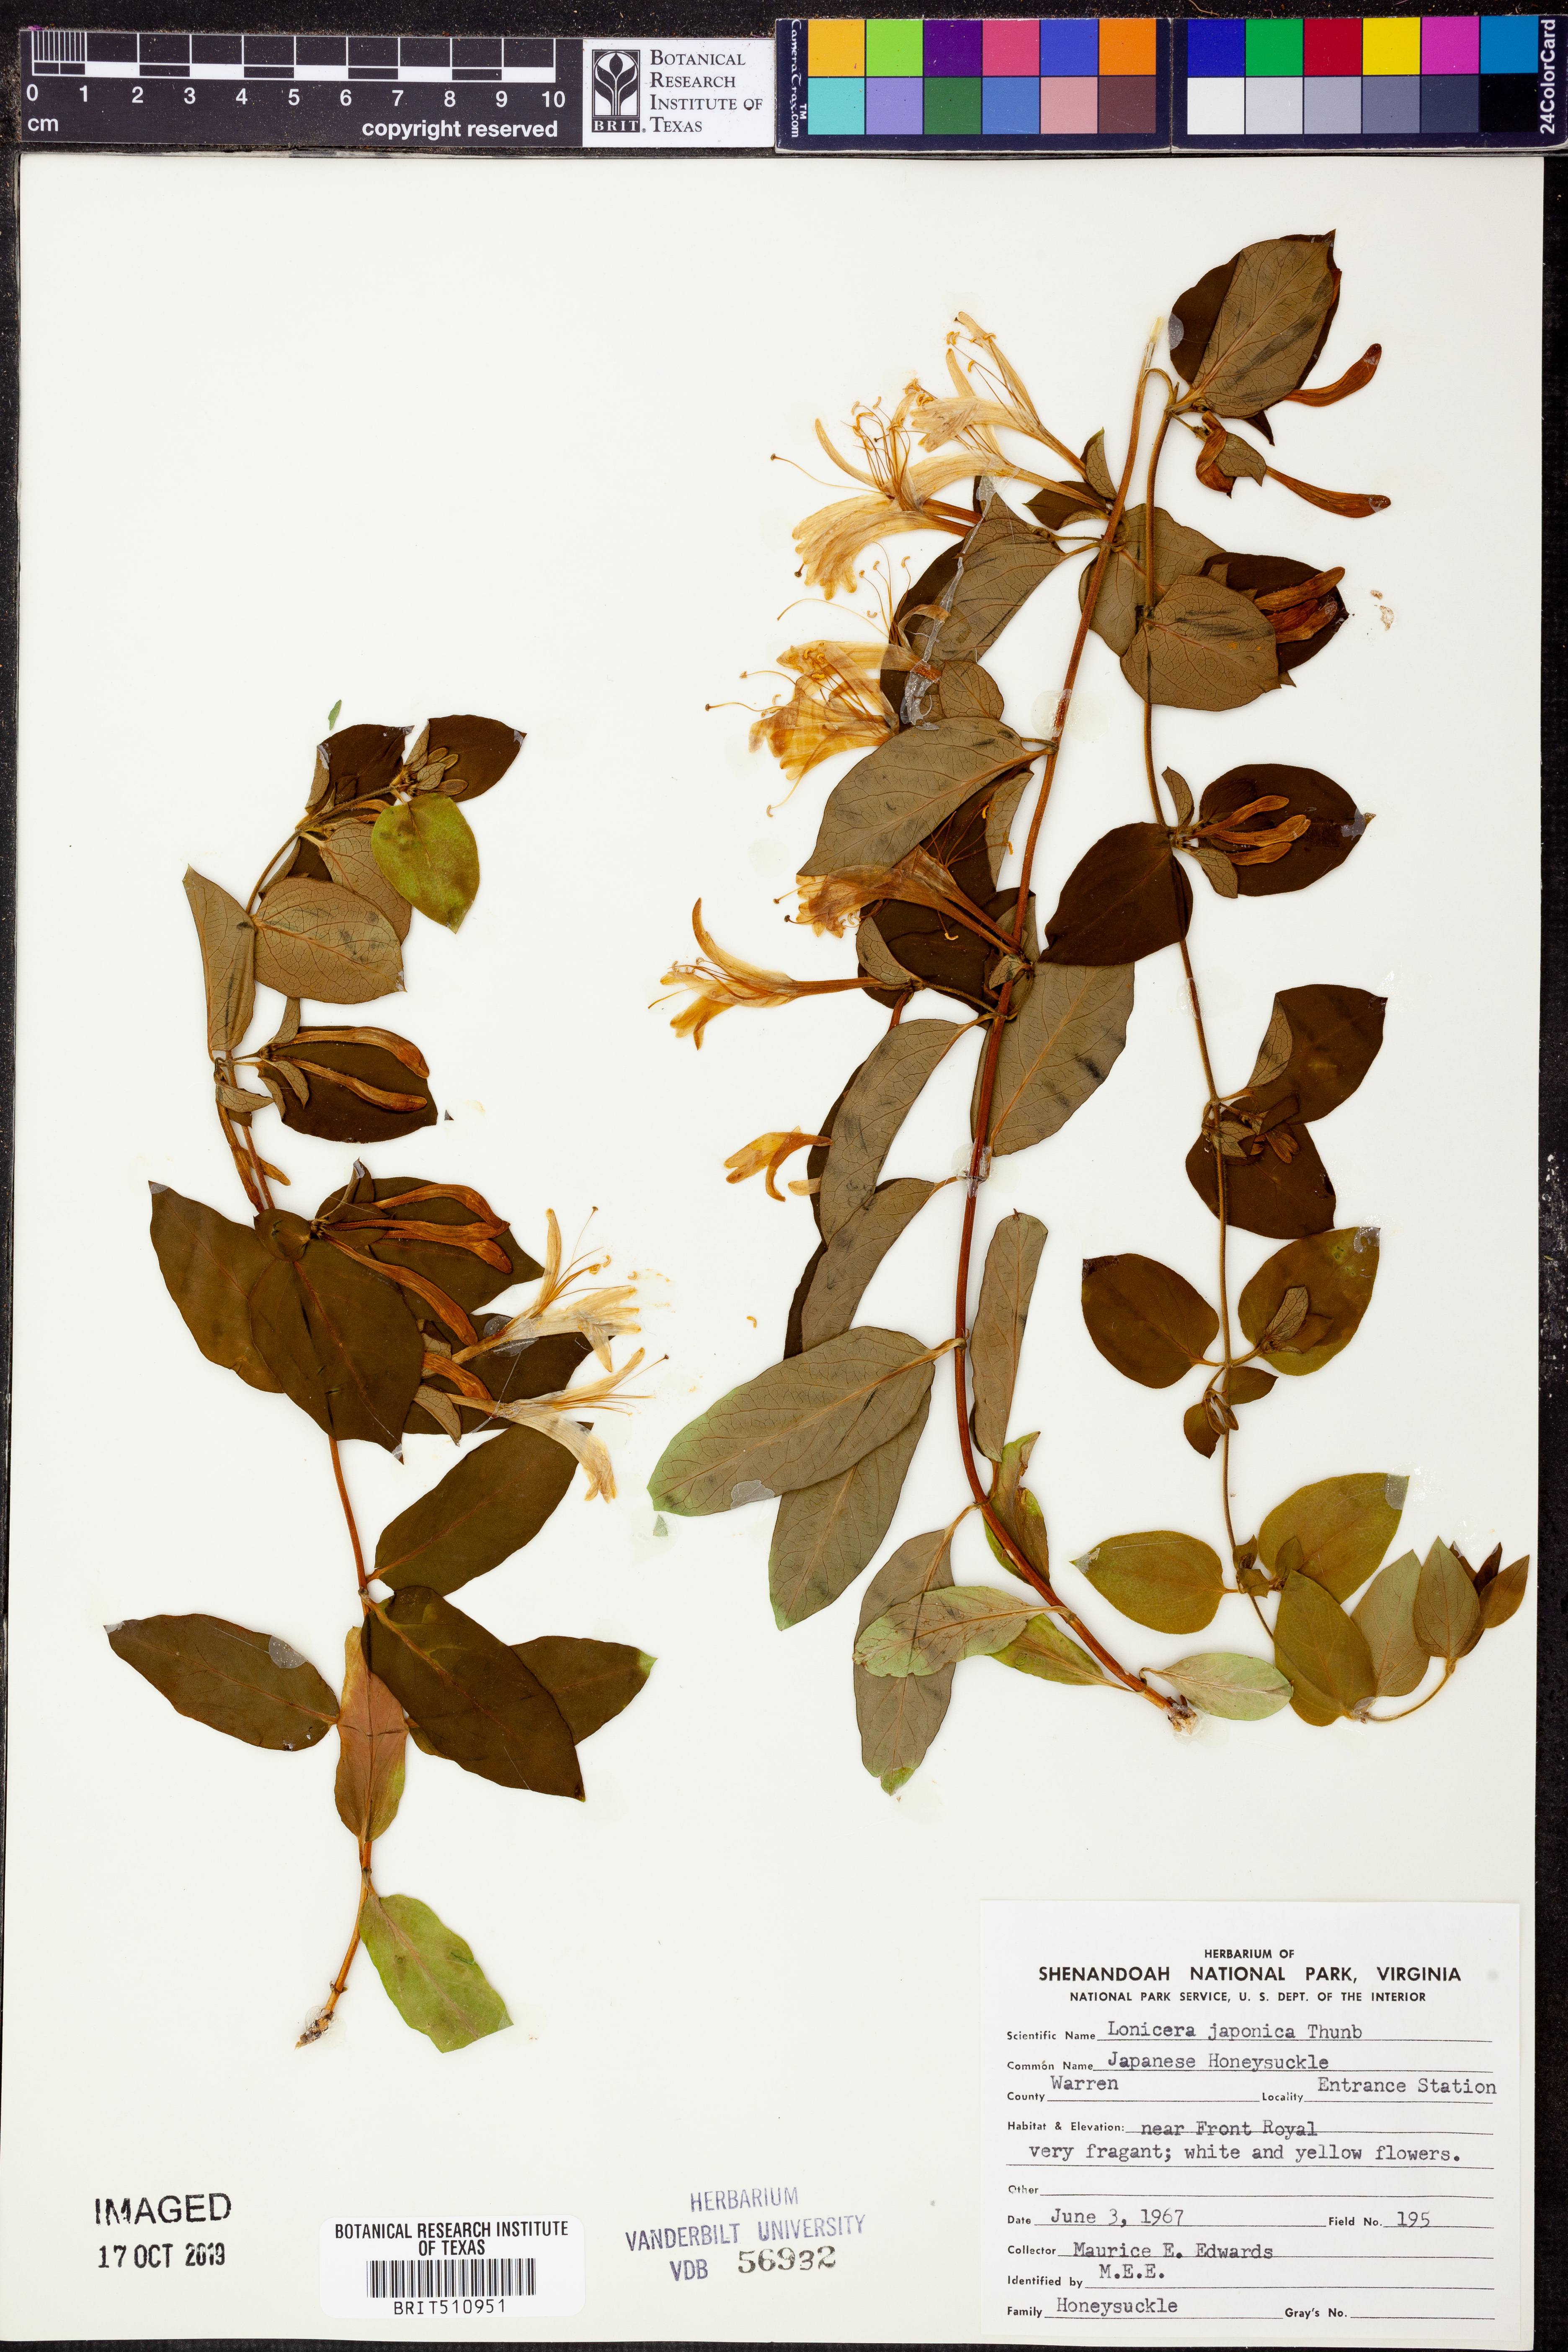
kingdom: Plantae
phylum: Tracheophyta
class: Magnoliopsida
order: Dipsacales
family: Caprifoliaceae
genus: Lonicera
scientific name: Lonicera japonica
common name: Japanese honeysuckle
